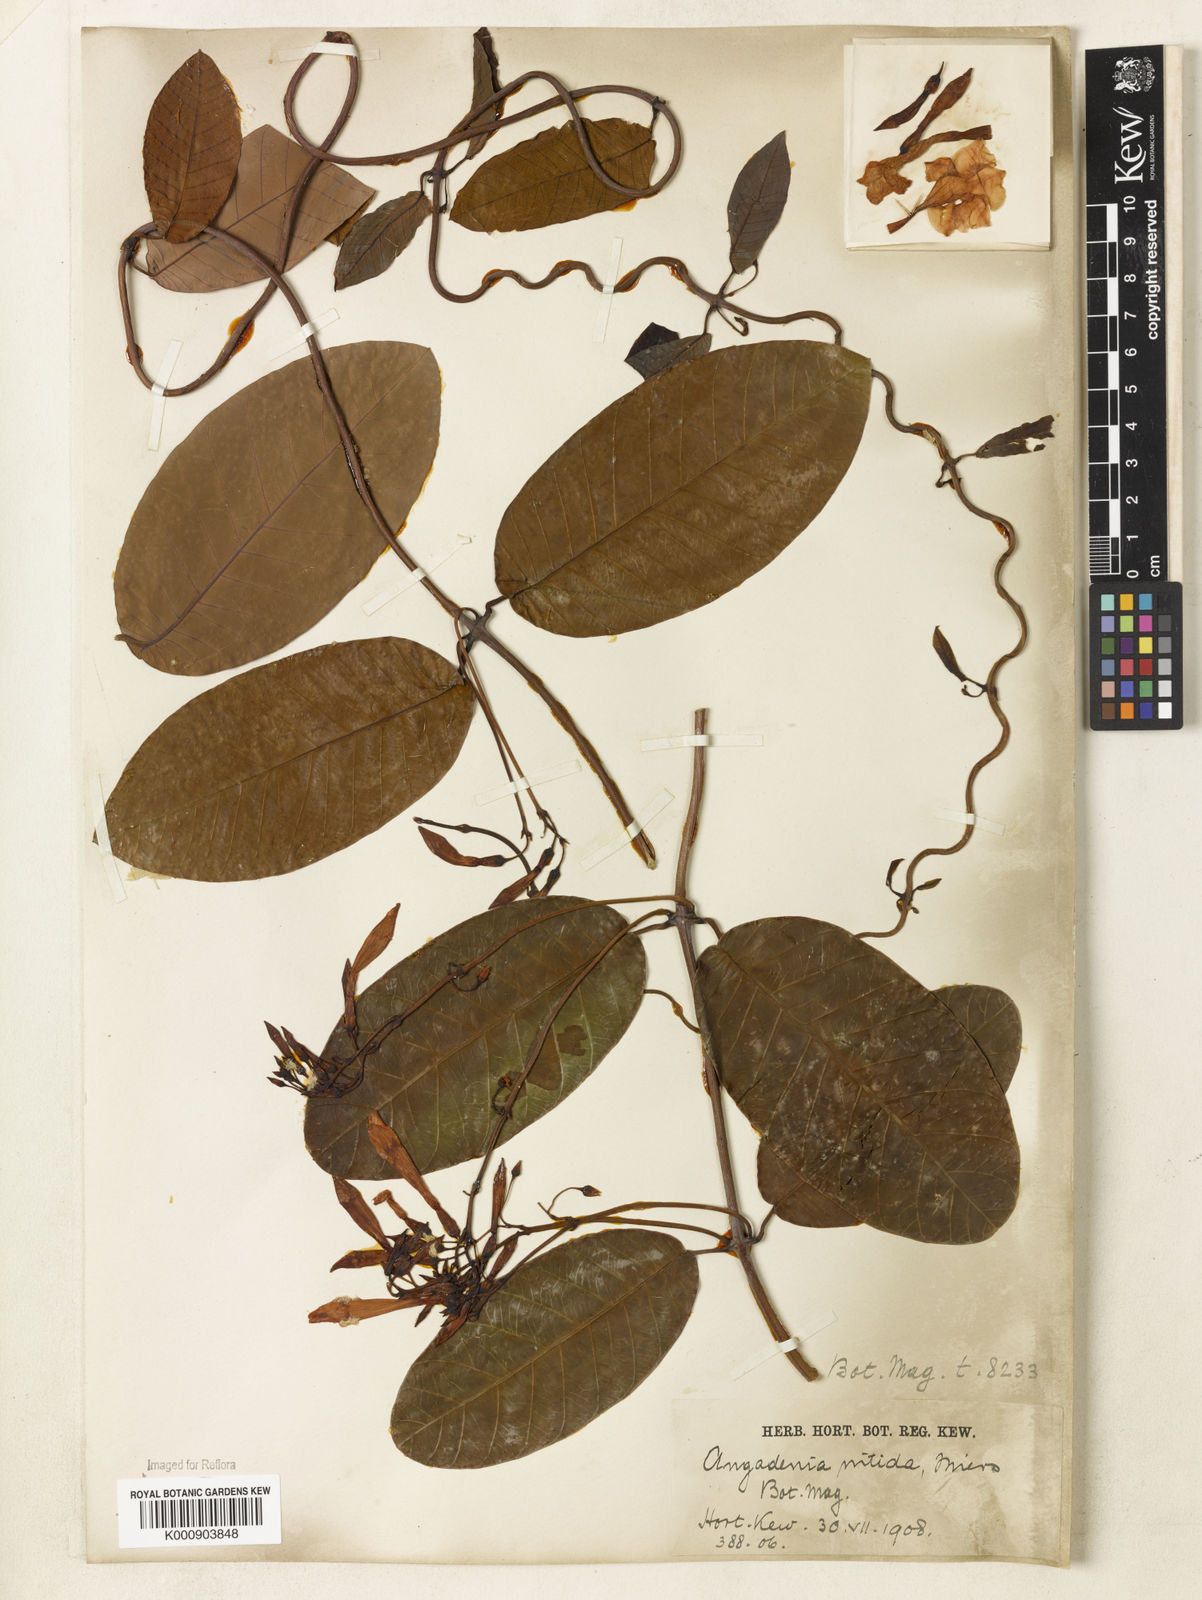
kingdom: Plantae
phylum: Tracheophyta
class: Magnoliopsida
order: Gentianales
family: Apocynaceae
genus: Odontadenia
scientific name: Odontadenia
